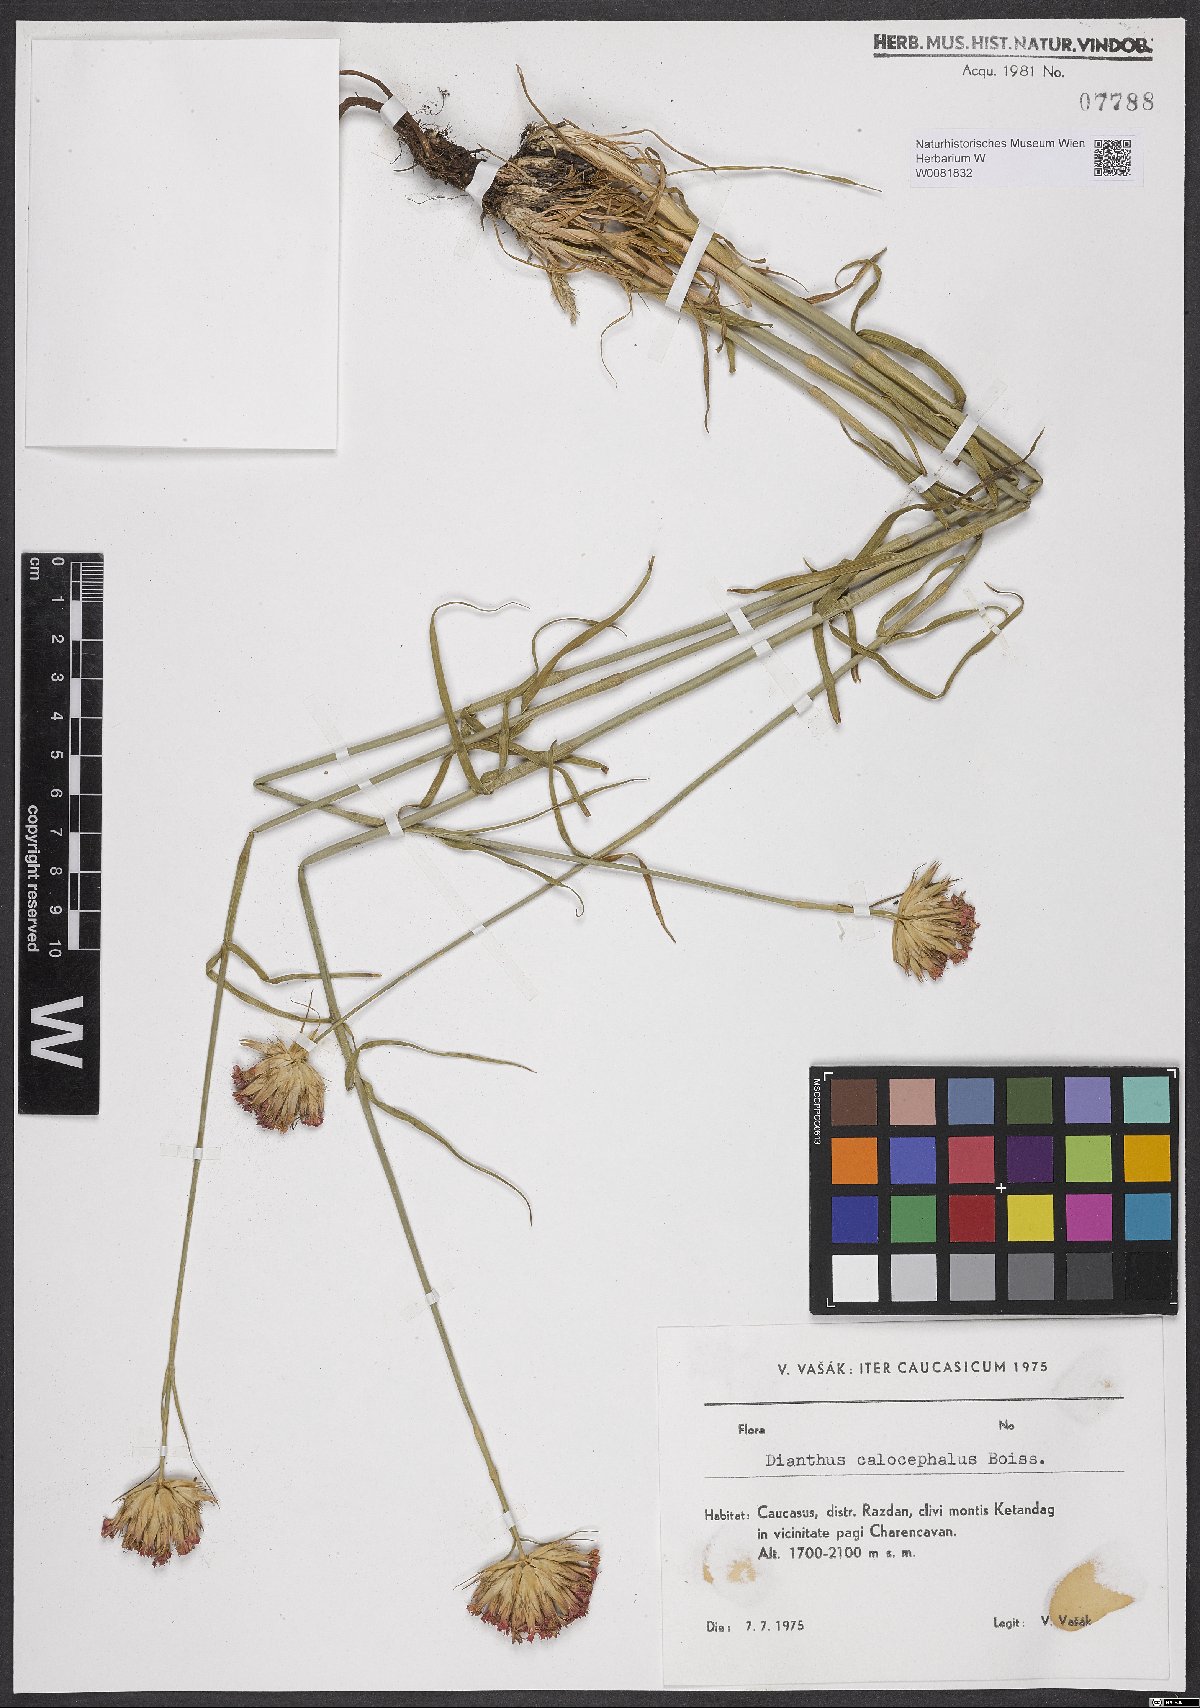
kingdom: Plantae
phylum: Tracheophyta
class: Magnoliopsida
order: Caryophyllales
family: Caryophyllaceae
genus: Dianthus
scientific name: Dianthus cruentus
